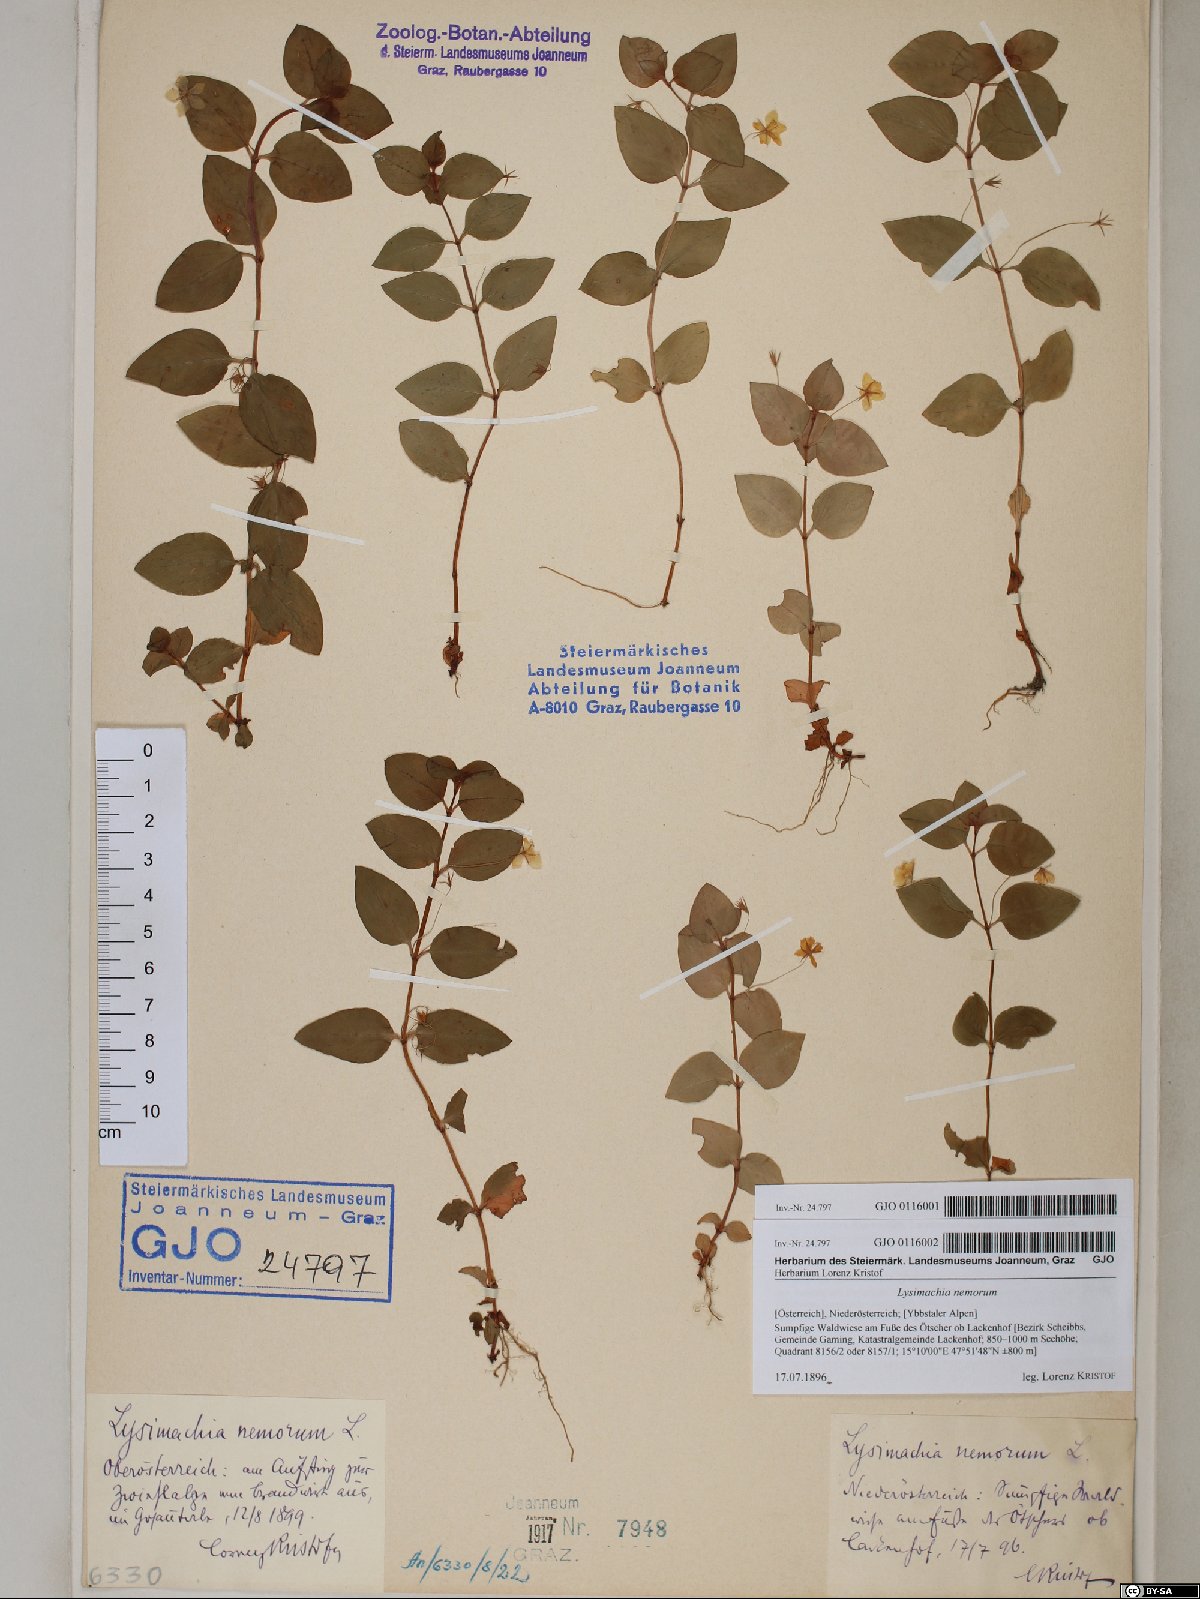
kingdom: Plantae
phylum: Tracheophyta
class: Magnoliopsida
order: Ericales
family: Primulaceae
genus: Lysimachia
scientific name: Lysimachia nemorum
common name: Yellow pimpernel
